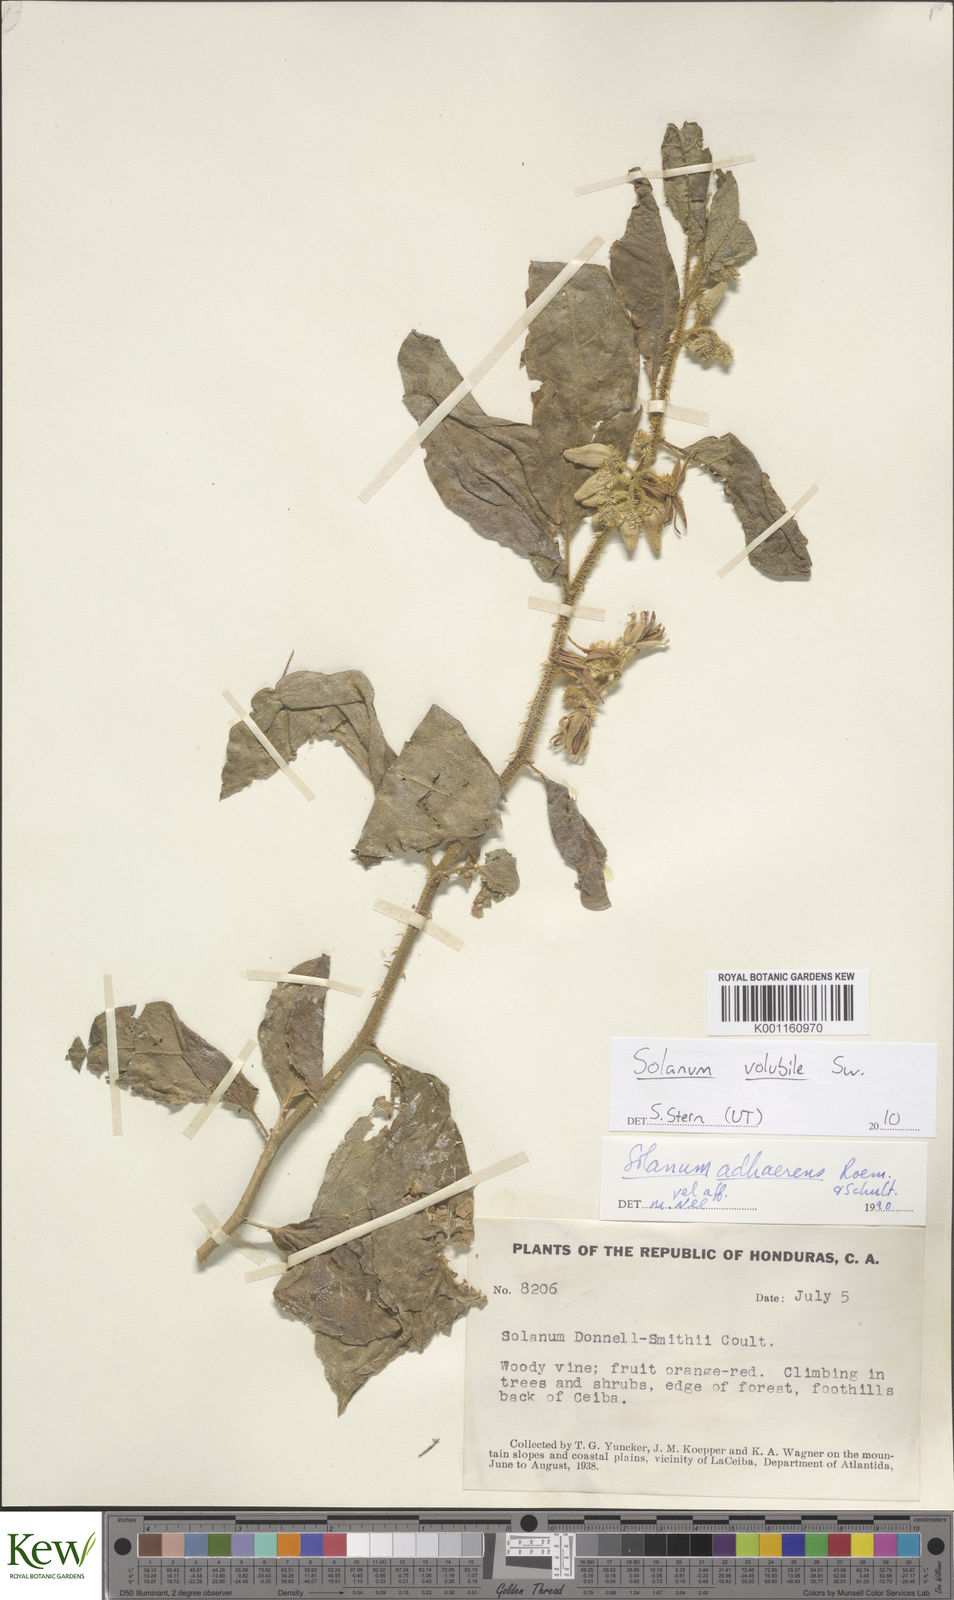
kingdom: Plantae
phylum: Tracheophyta
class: Magnoliopsida
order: Solanales
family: Solanaceae
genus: Solanum
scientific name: Solanum volubile
